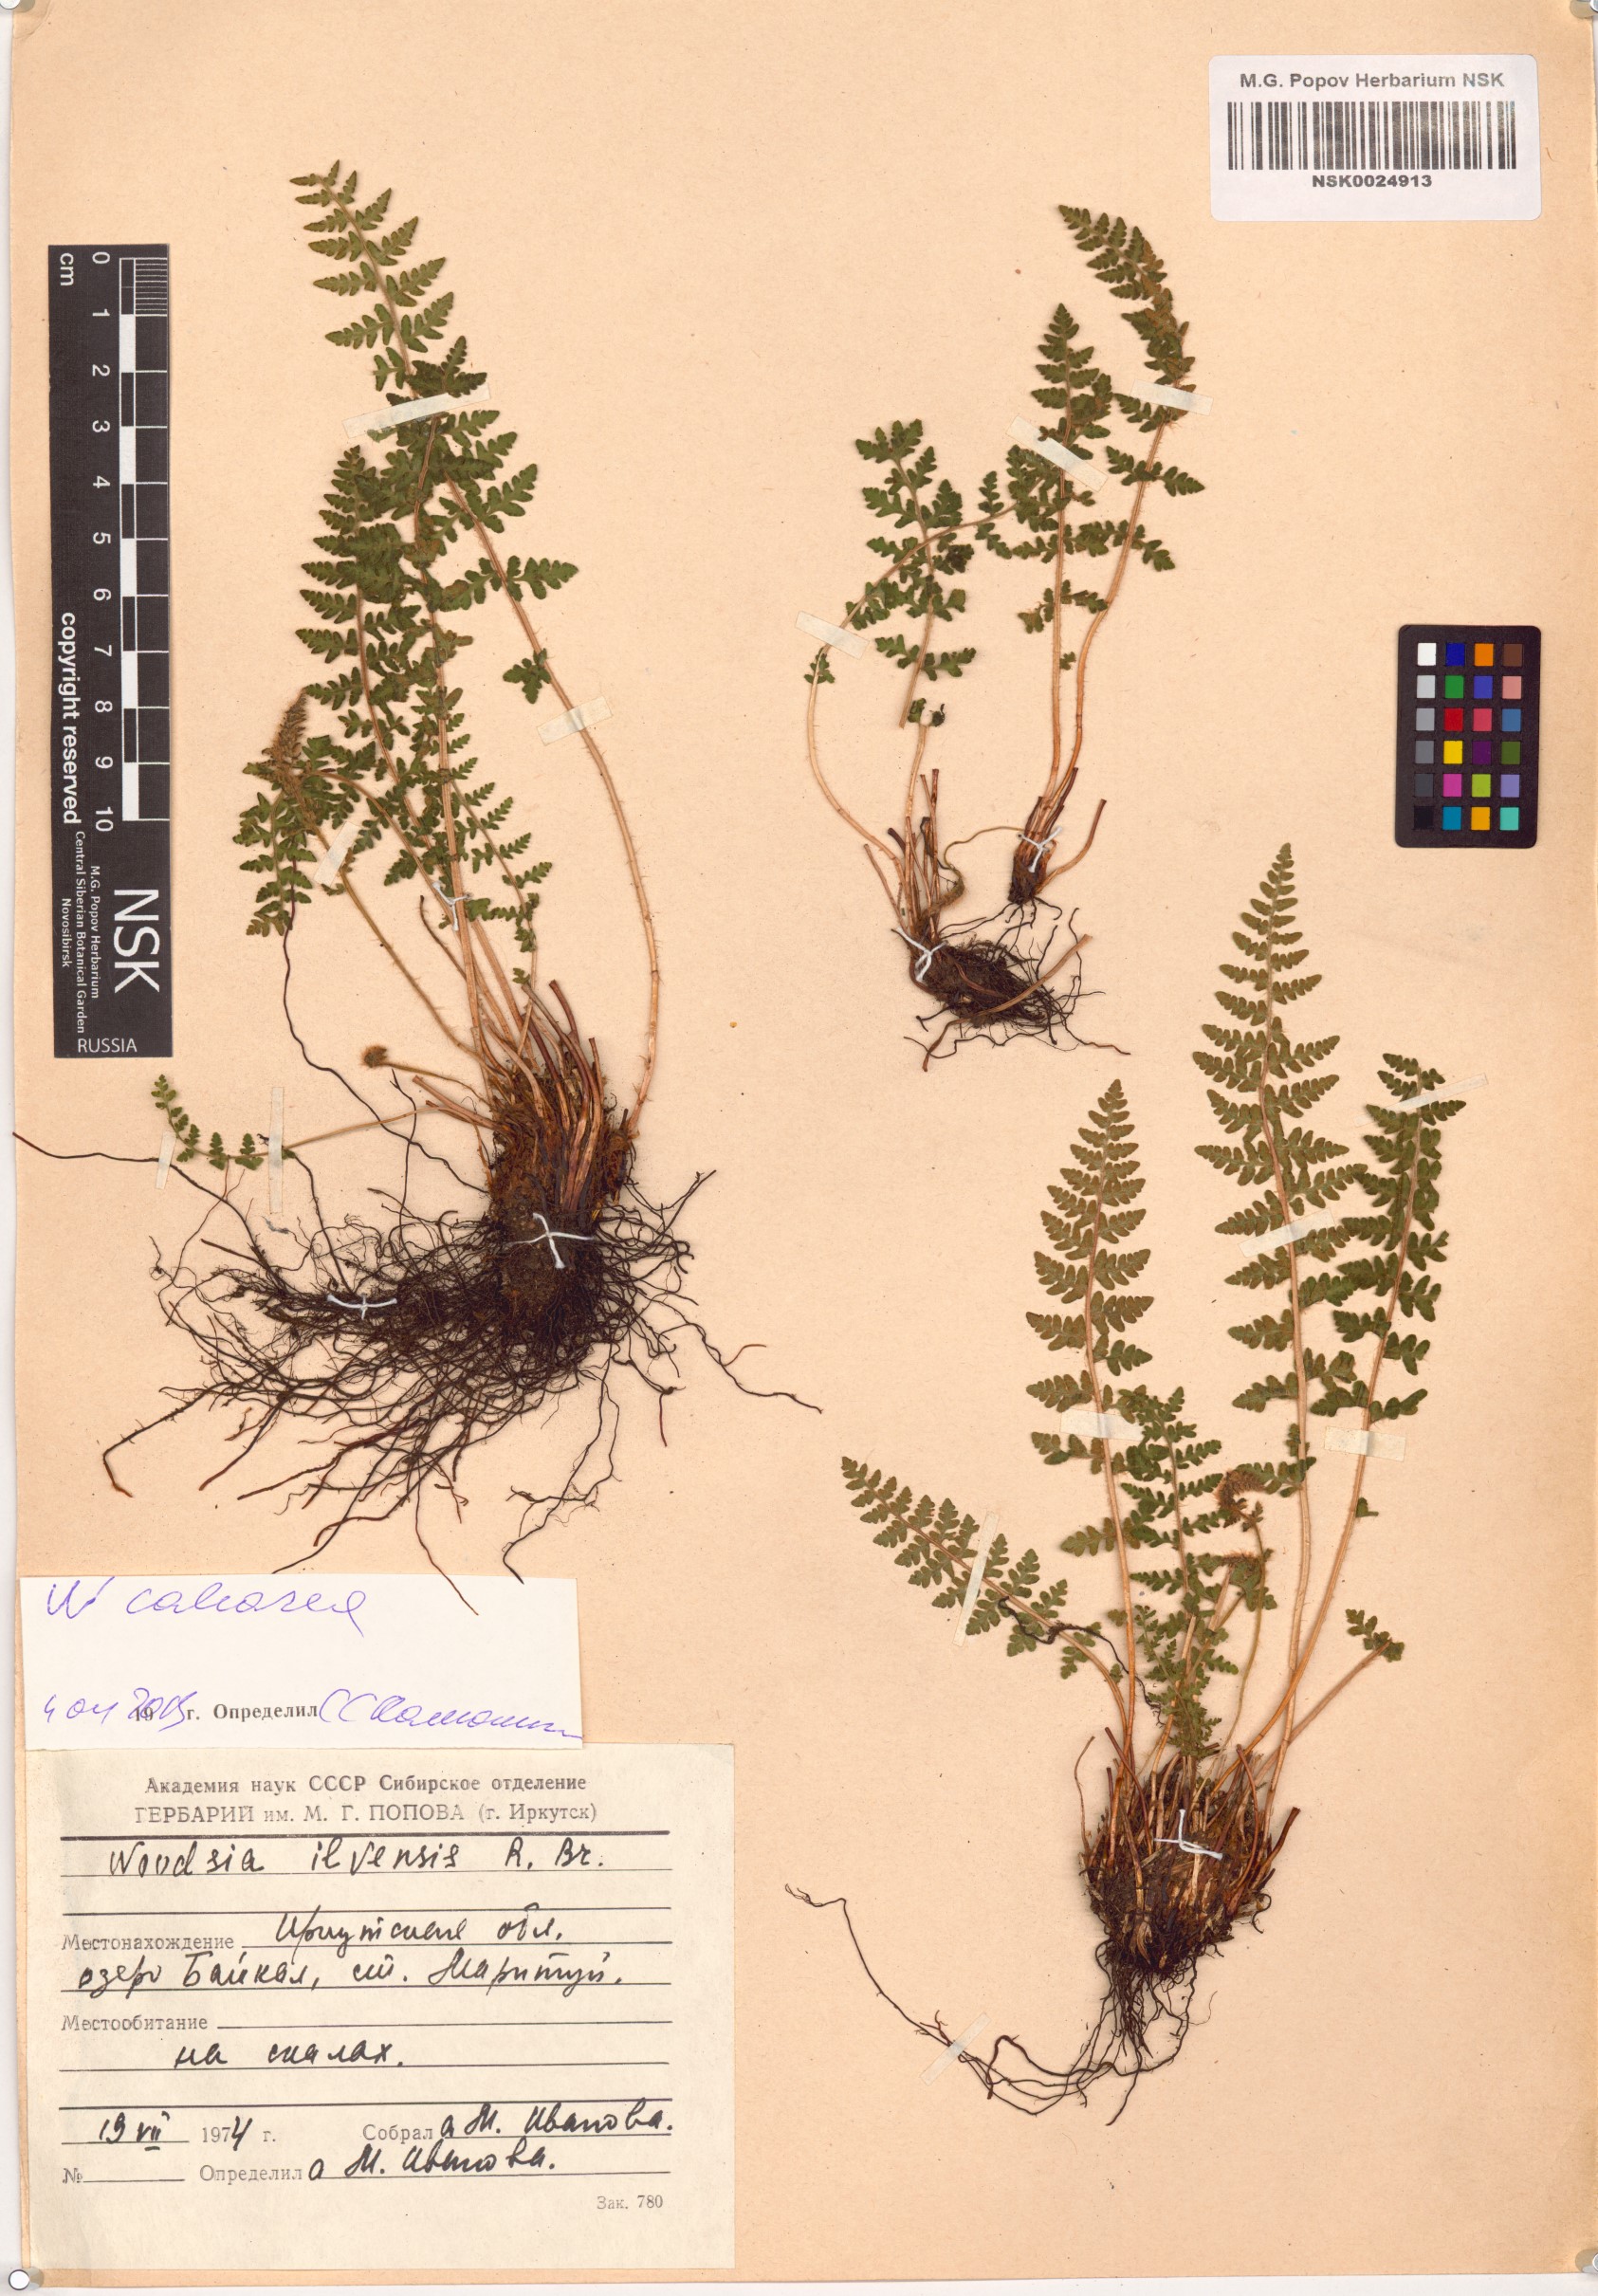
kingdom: Plantae
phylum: Tracheophyta
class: Polypodiopsida
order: Polypodiales
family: Woodsiaceae
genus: Woodsia
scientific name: Woodsia calcarea
